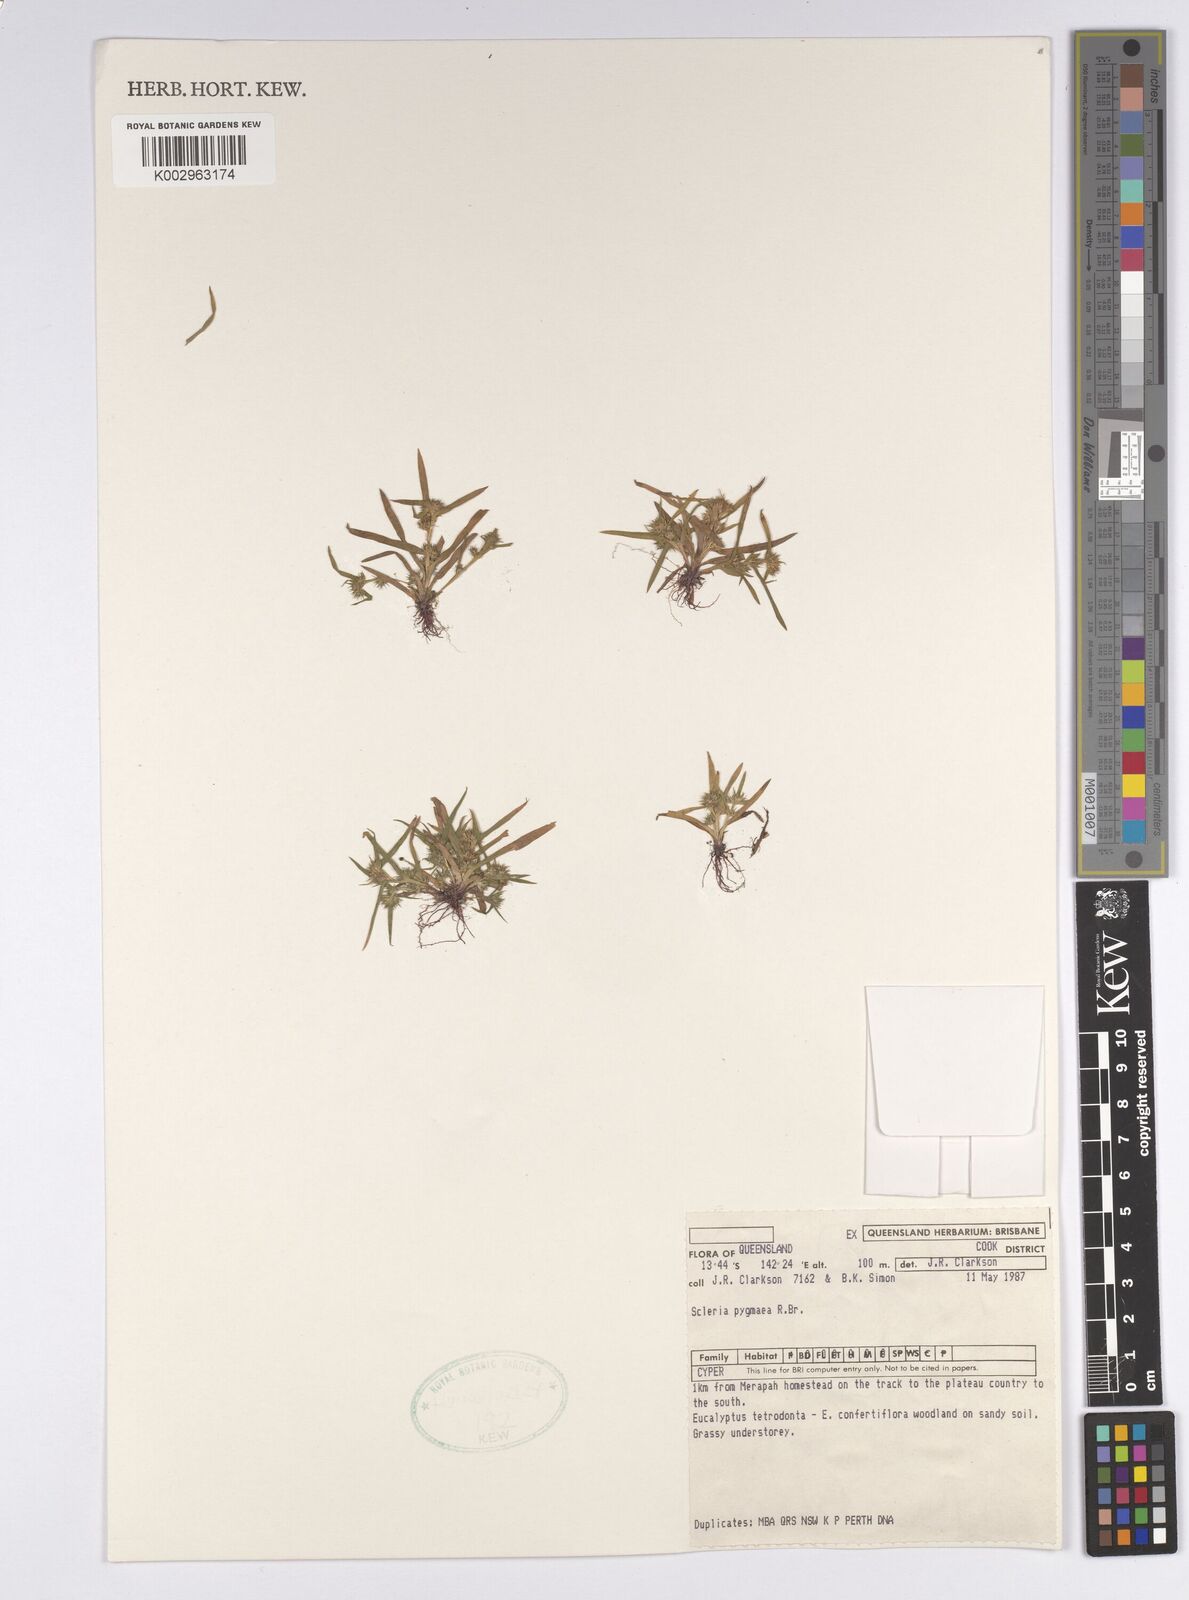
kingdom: Plantae
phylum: Tracheophyta
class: Liliopsida
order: Poales
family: Cyperaceae
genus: Diplacrum
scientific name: Diplacrum pygmaeum
